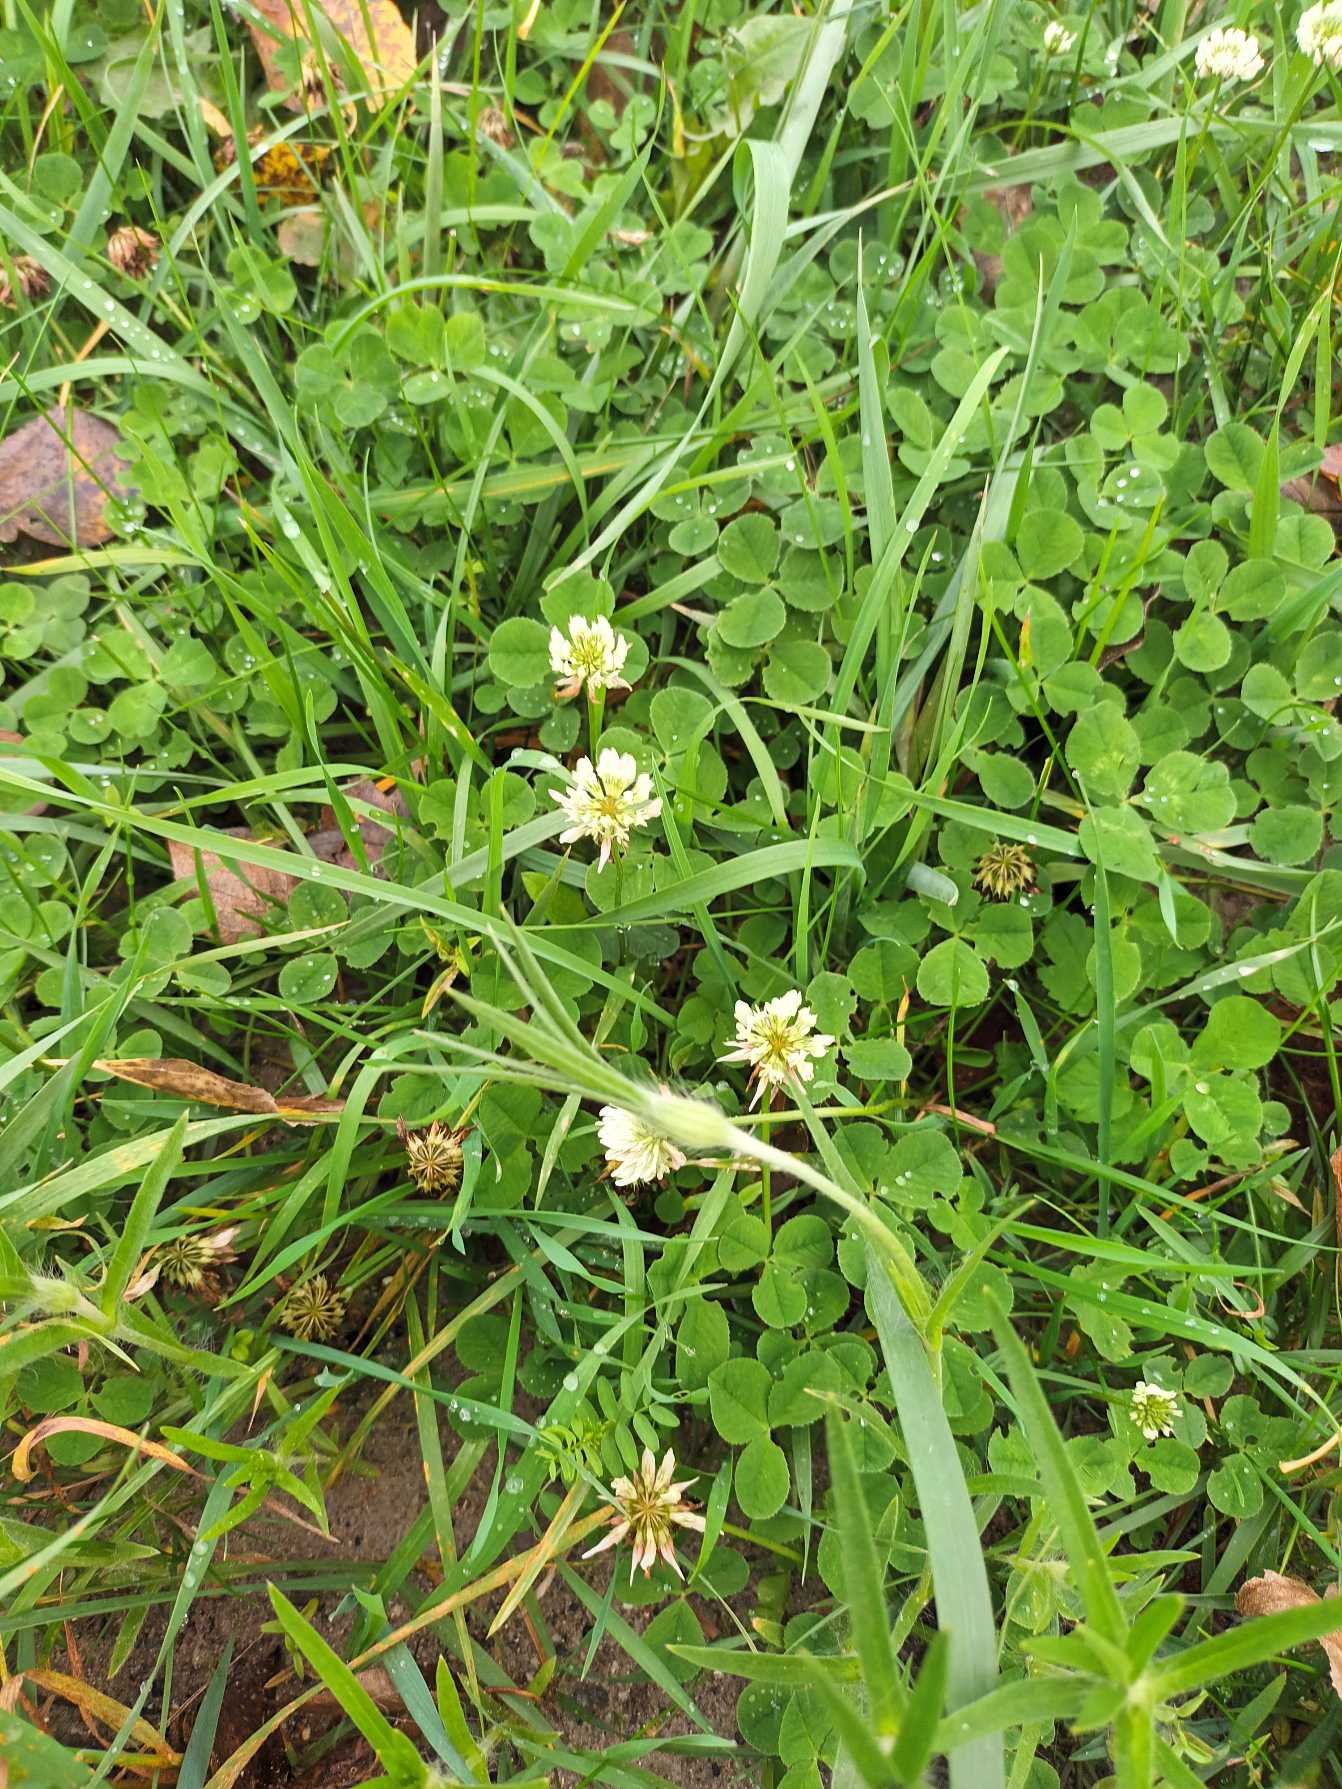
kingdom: Plantae
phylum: Tracheophyta
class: Magnoliopsida
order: Fabales
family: Fabaceae
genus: Trifolium
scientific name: Trifolium repens
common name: Hvid-kløver
